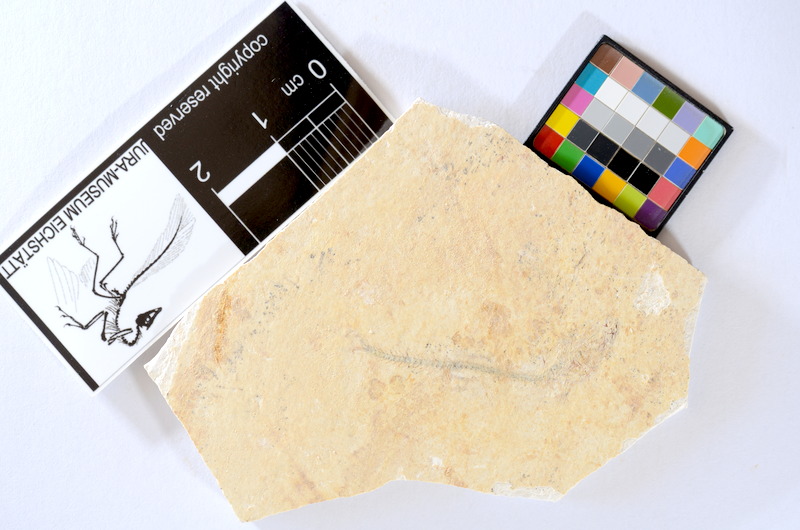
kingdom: Animalia
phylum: Chordata
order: Salmoniformes
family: Orthogonikleithridae
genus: Orthogonikleithrus
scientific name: Orthogonikleithrus hoelli
